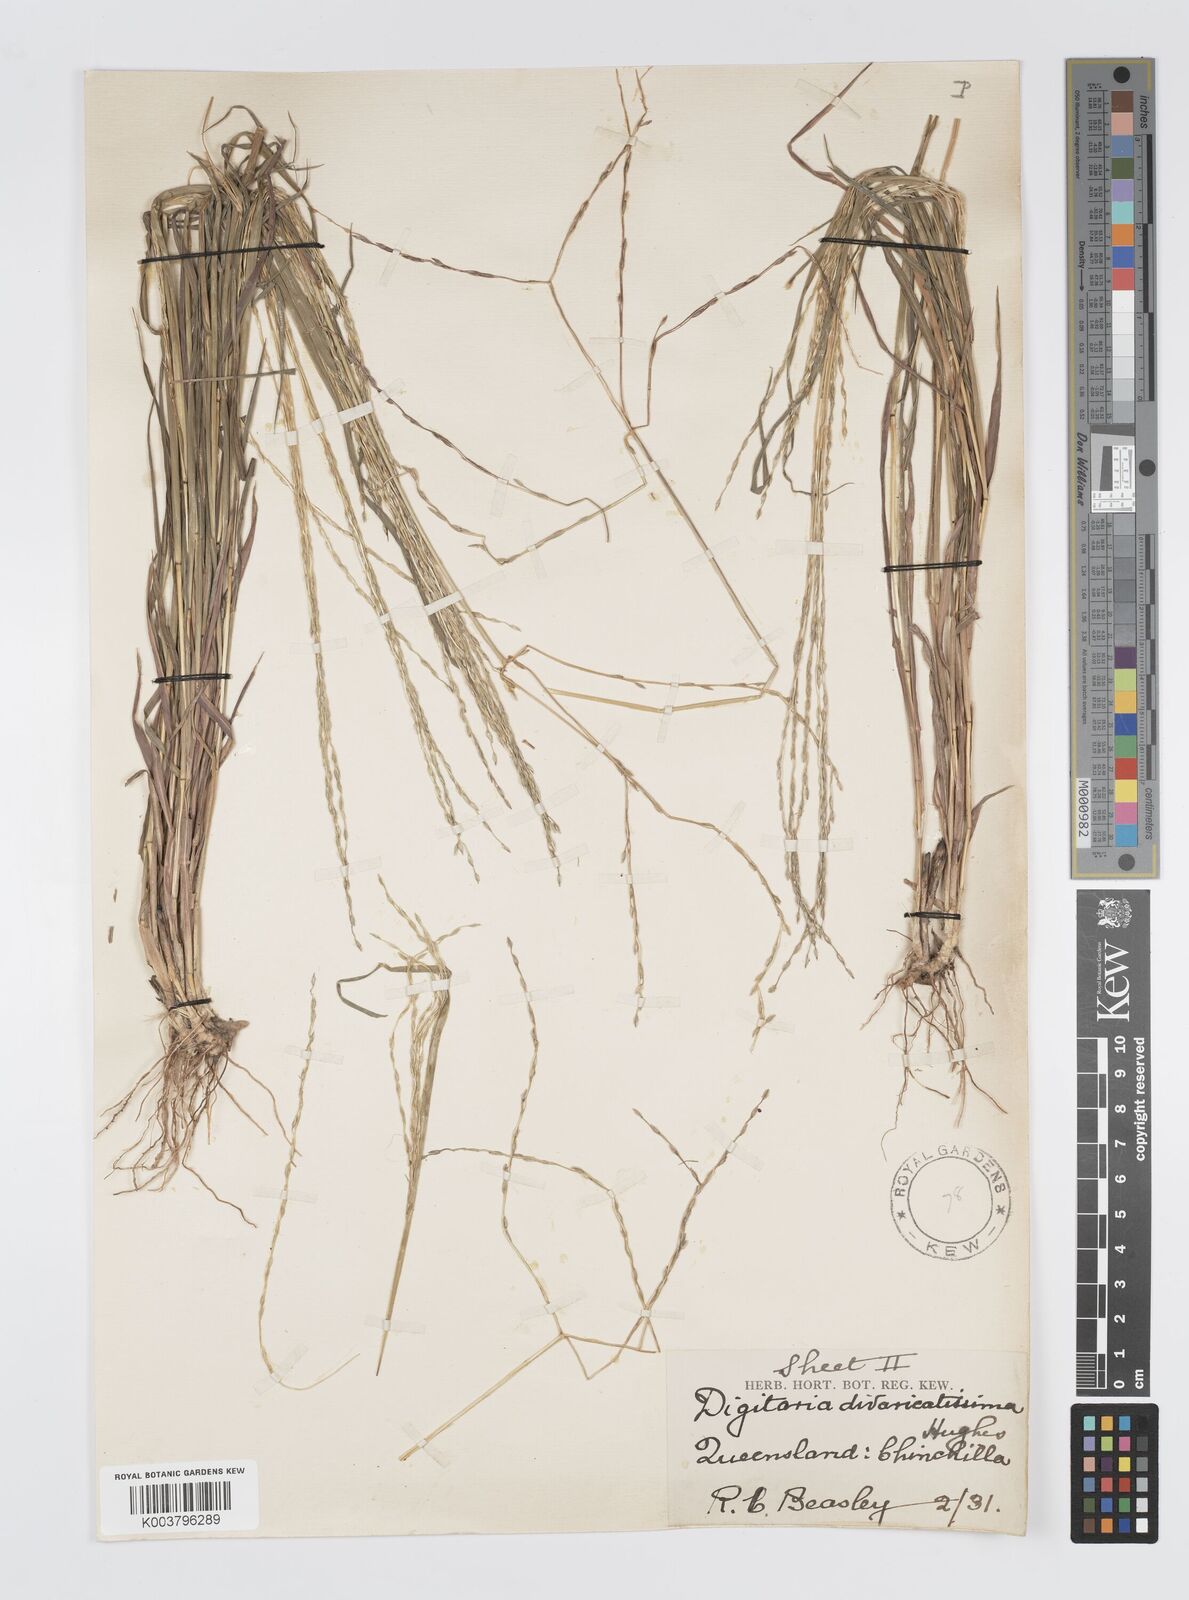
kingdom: Plantae
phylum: Tracheophyta
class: Liliopsida
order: Poales
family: Poaceae
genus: Digitaria
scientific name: Digitaria divaricatissima
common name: Crabgrass
